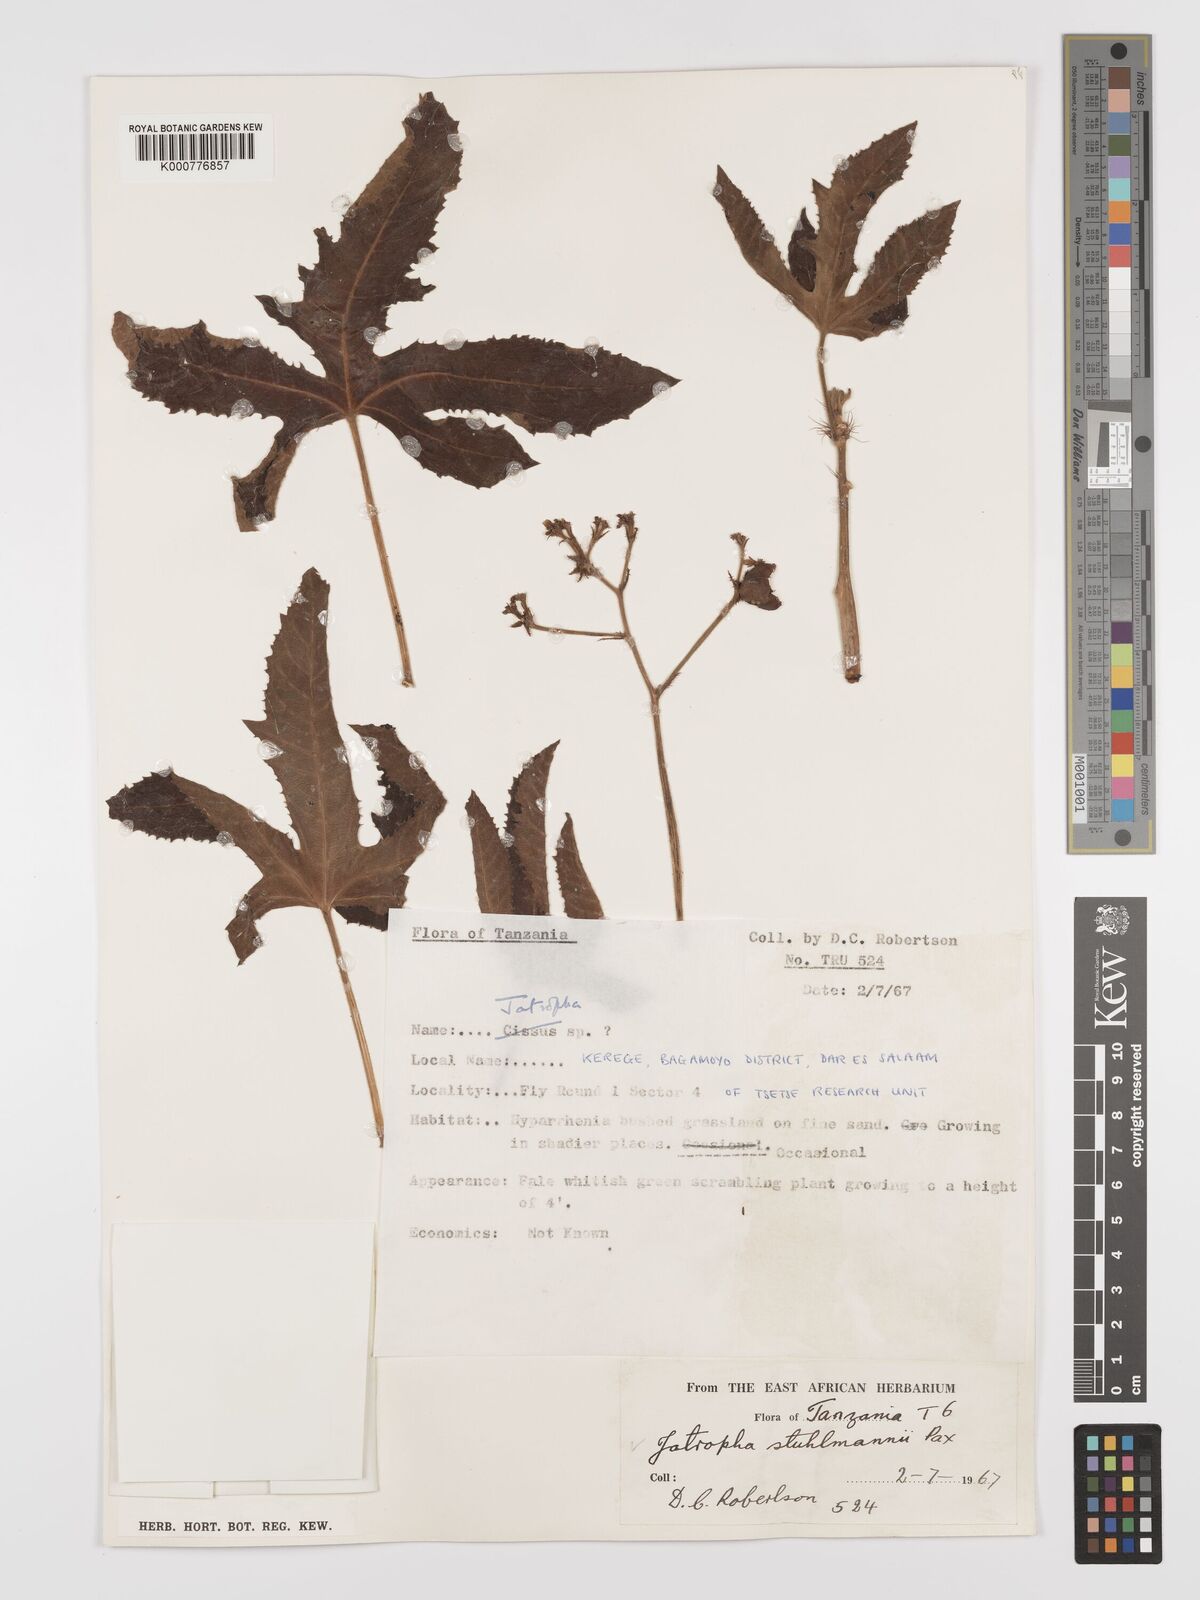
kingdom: Plantae
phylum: Tracheophyta
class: Magnoliopsida
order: Malpighiales
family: Euphorbiaceae
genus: Jatropha
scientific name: Jatropha stuhlmannii
